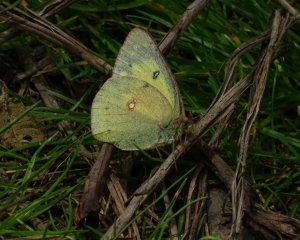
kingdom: Animalia
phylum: Arthropoda
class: Insecta
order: Lepidoptera
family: Pieridae
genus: Colias
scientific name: Colias philodice
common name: Clouded Sulphur
